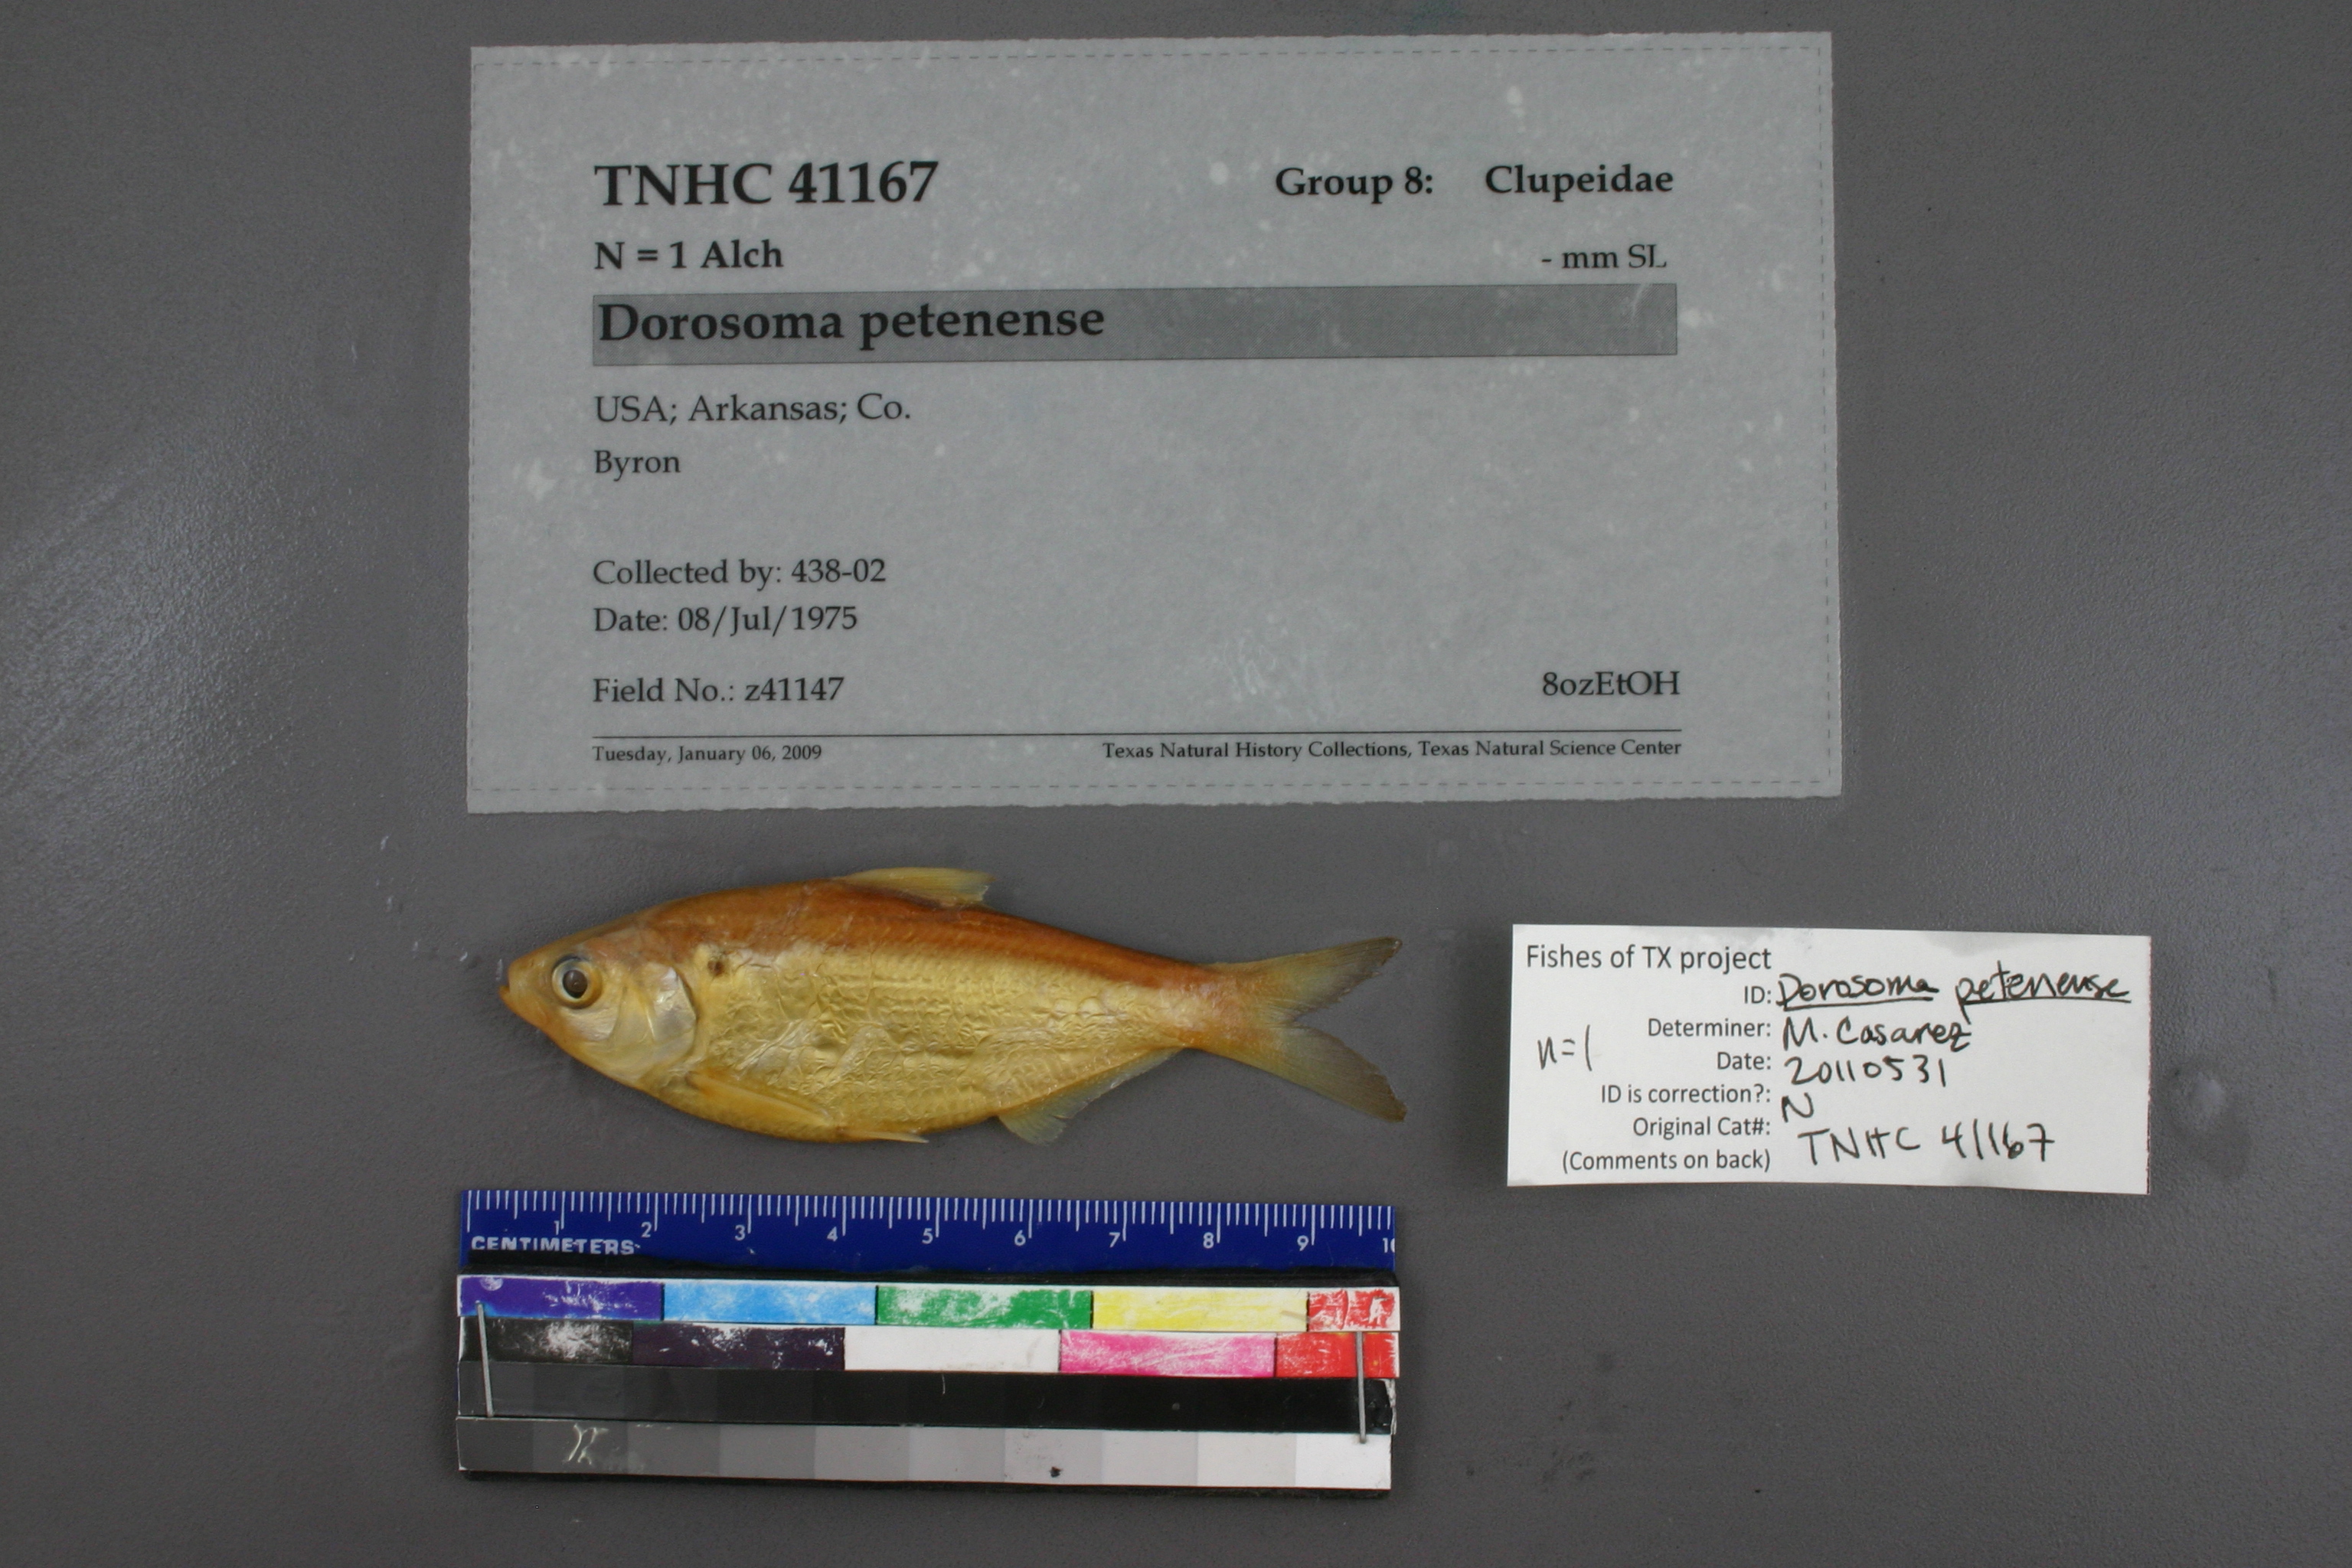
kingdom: Animalia
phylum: Chordata
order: Clupeiformes
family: Clupeidae
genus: Dorosoma
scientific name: Dorosoma petenense
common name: Threadfin shad
